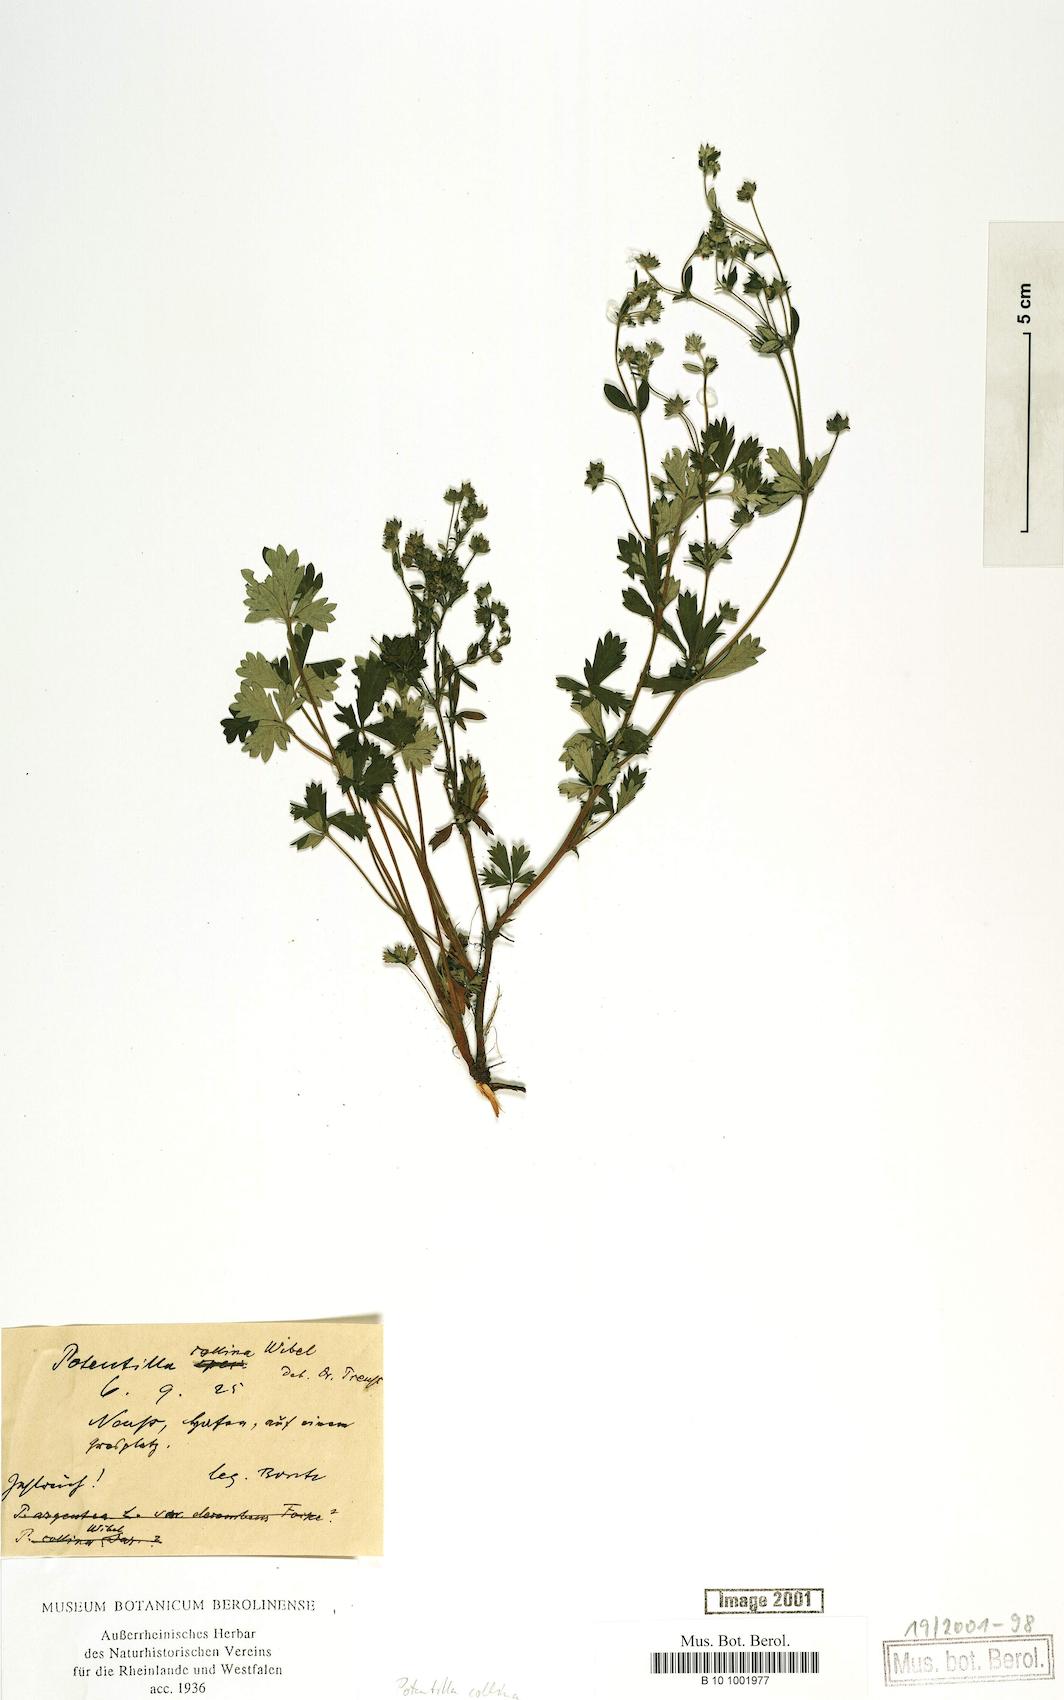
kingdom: Plantae
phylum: Tracheophyta
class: Magnoliopsida
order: Rosales
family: Rosaceae
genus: Potentilla
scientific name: Potentilla collina
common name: Palmleaf cinquefoil
